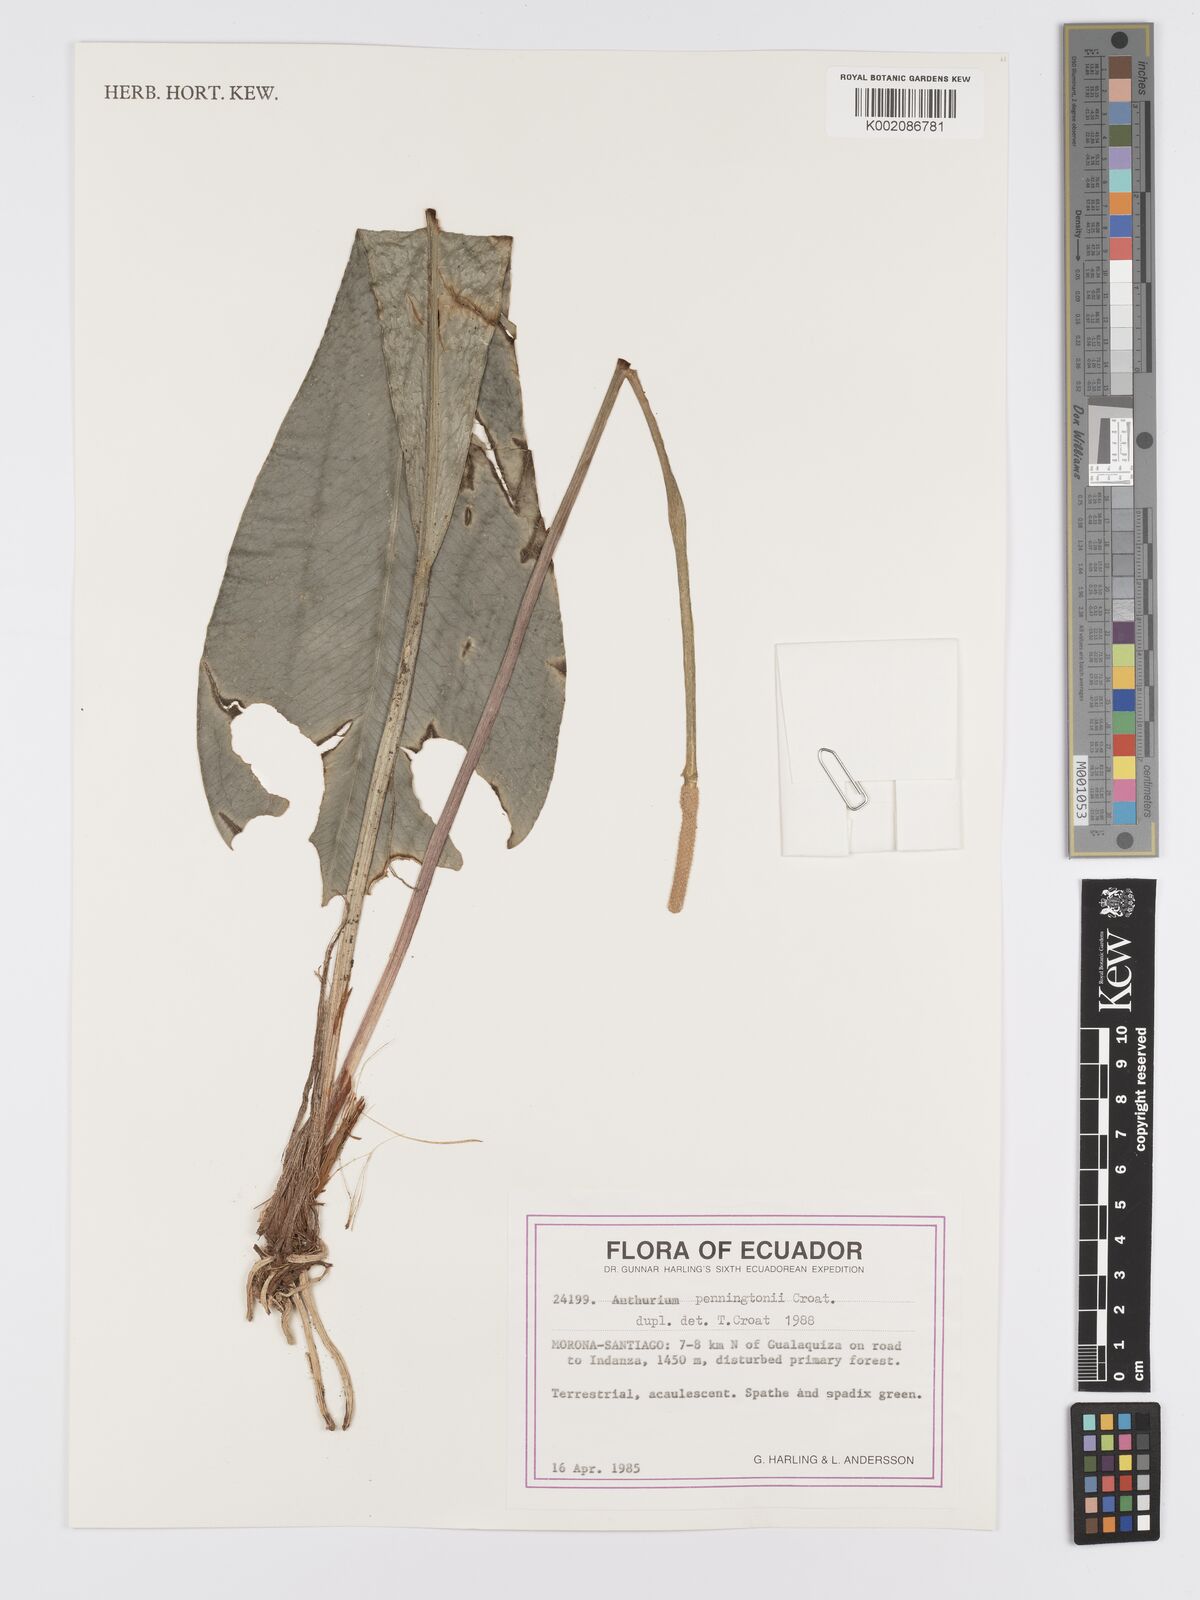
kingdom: Plantae
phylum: Tracheophyta
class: Liliopsida
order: Alismatales
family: Araceae
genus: Anthurium
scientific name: Anthurium penningtonii
